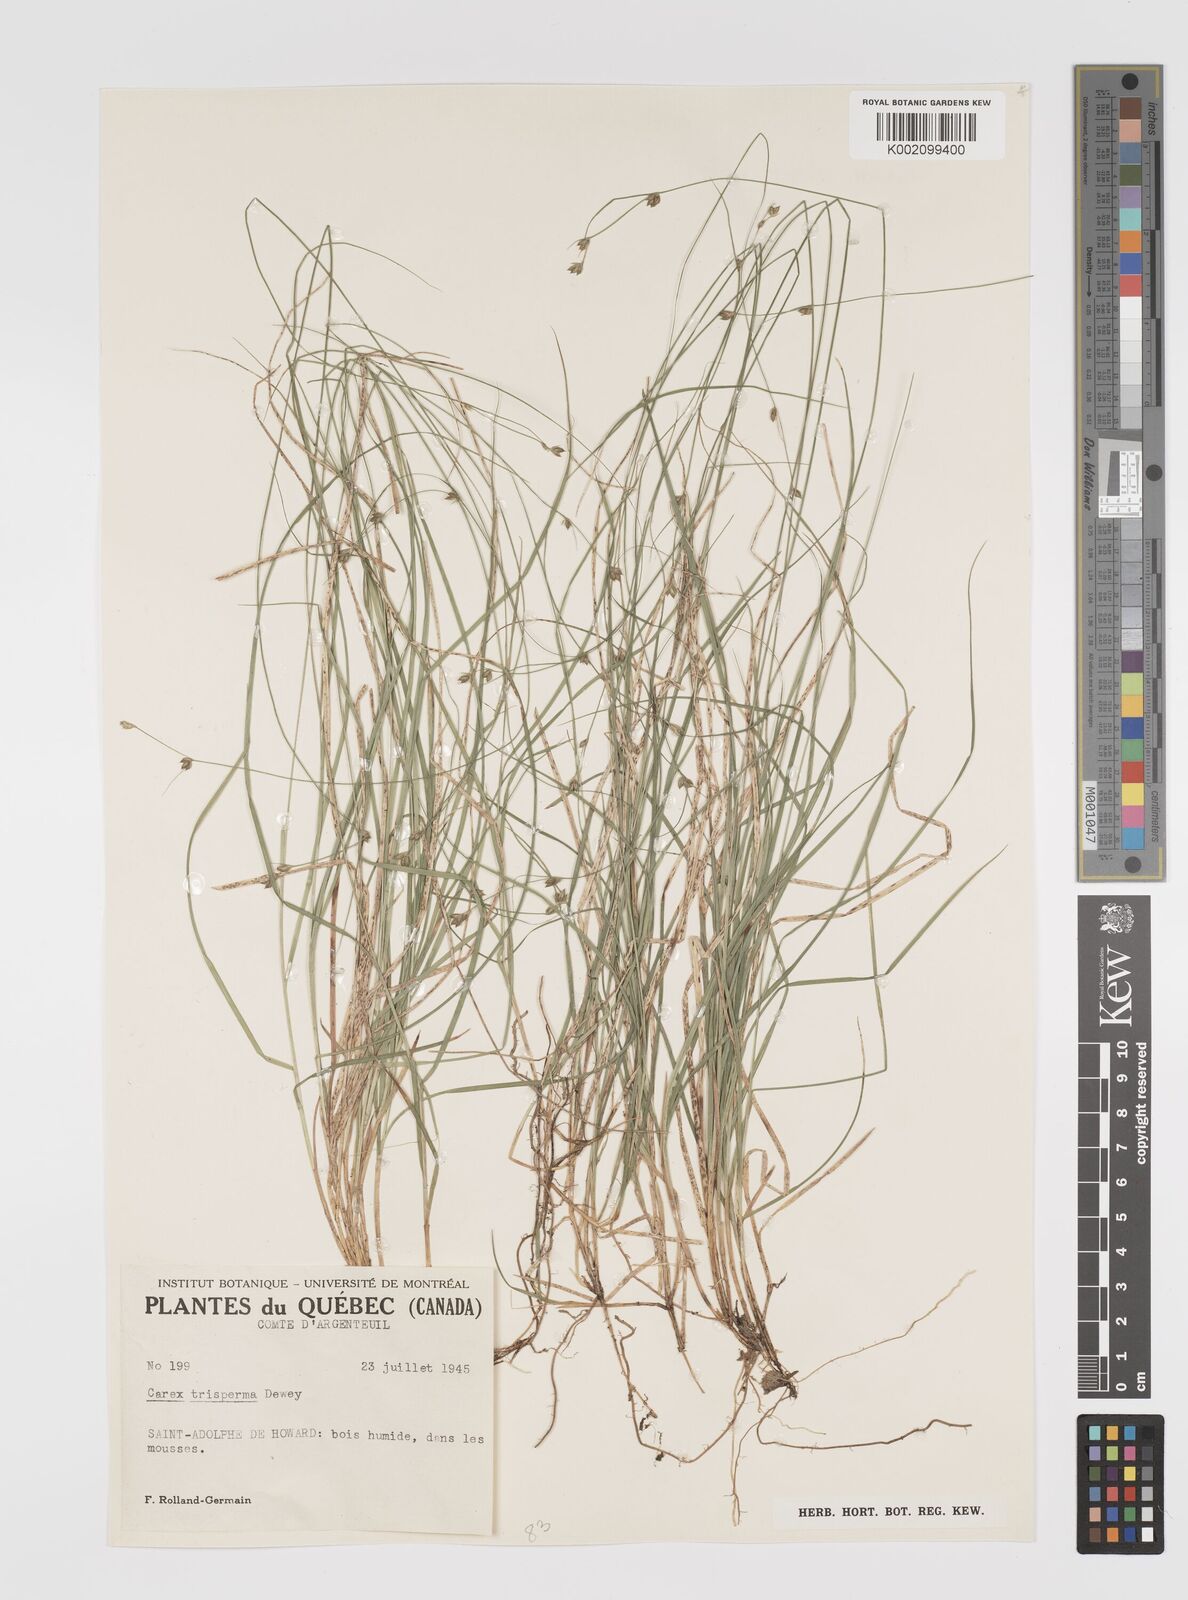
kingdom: Plantae
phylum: Tracheophyta
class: Liliopsida
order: Poales
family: Cyperaceae
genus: Carex
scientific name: Carex trisperma
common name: Three-seeded sedge
